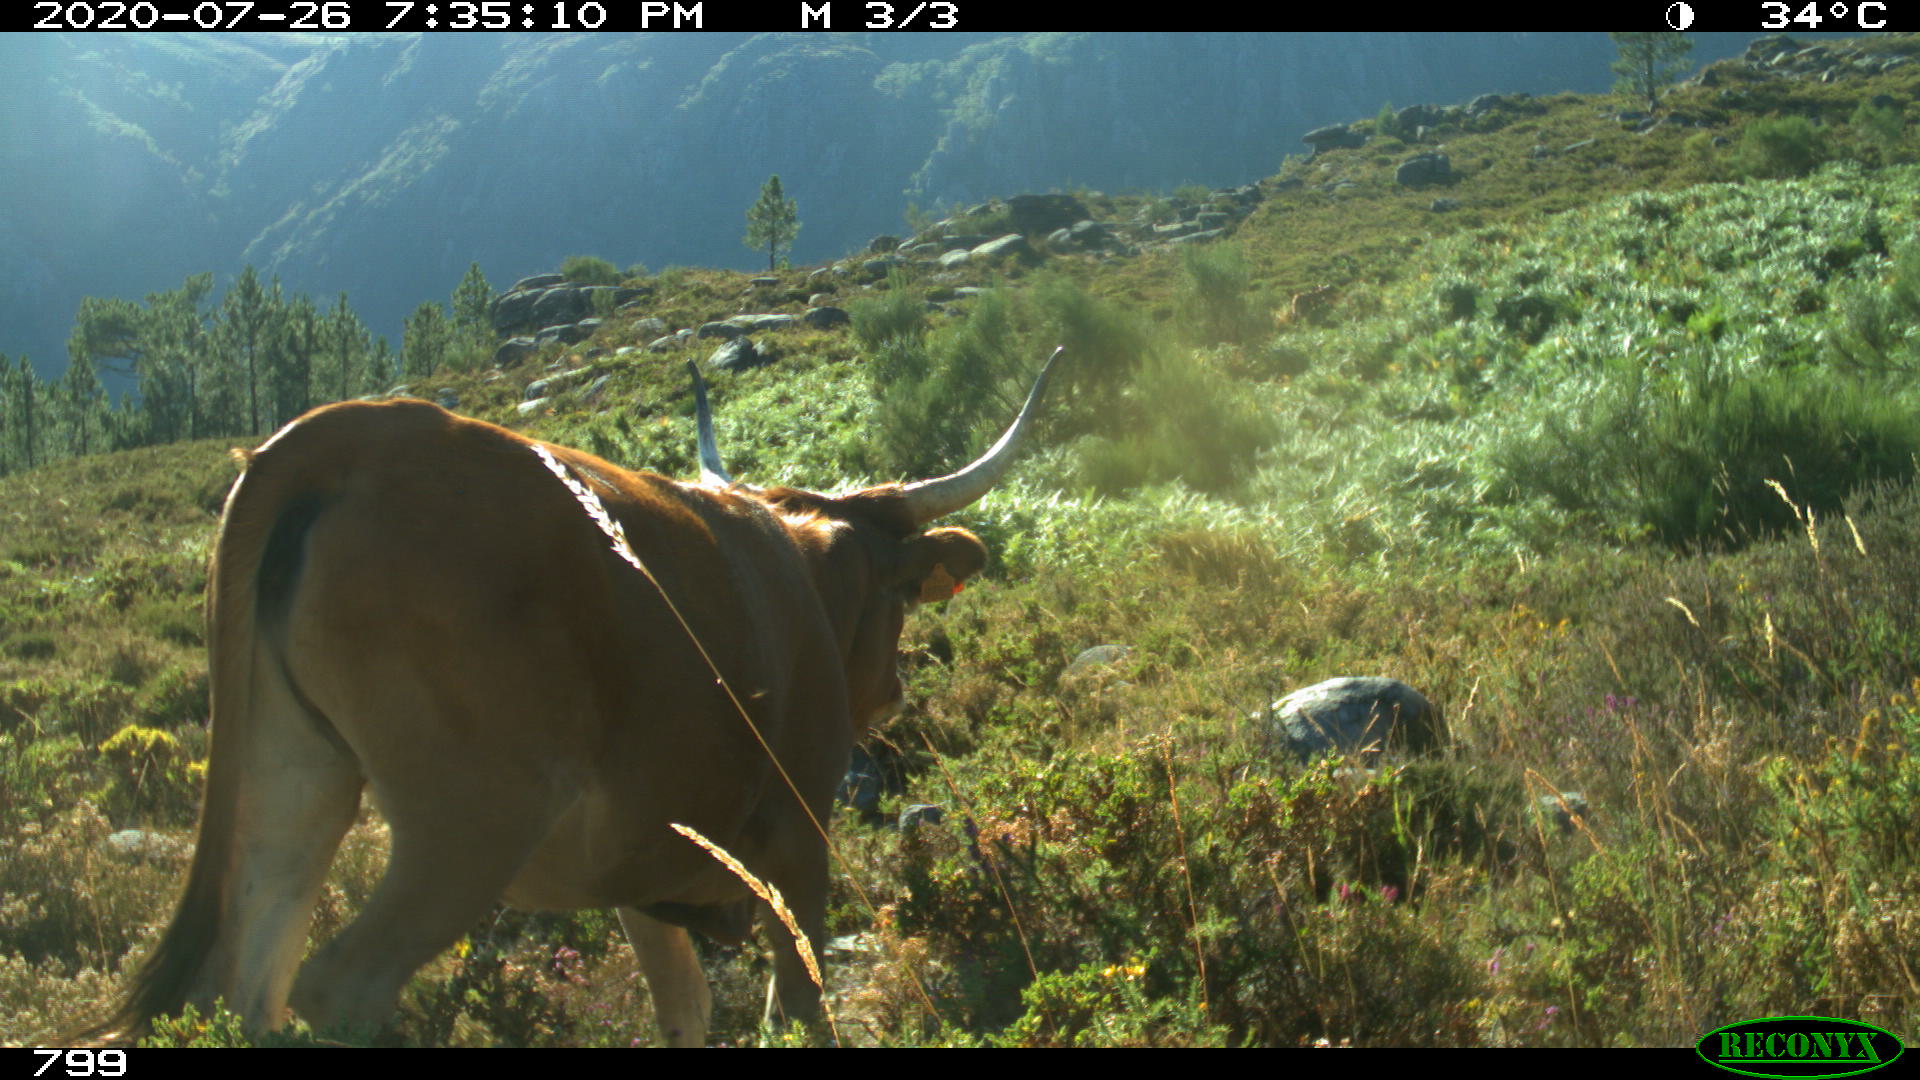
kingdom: Animalia
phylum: Chordata
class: Mammalia
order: Artiodactyla
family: Bovidae
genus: Bos
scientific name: Bos taurus
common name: Domesticated cattle
